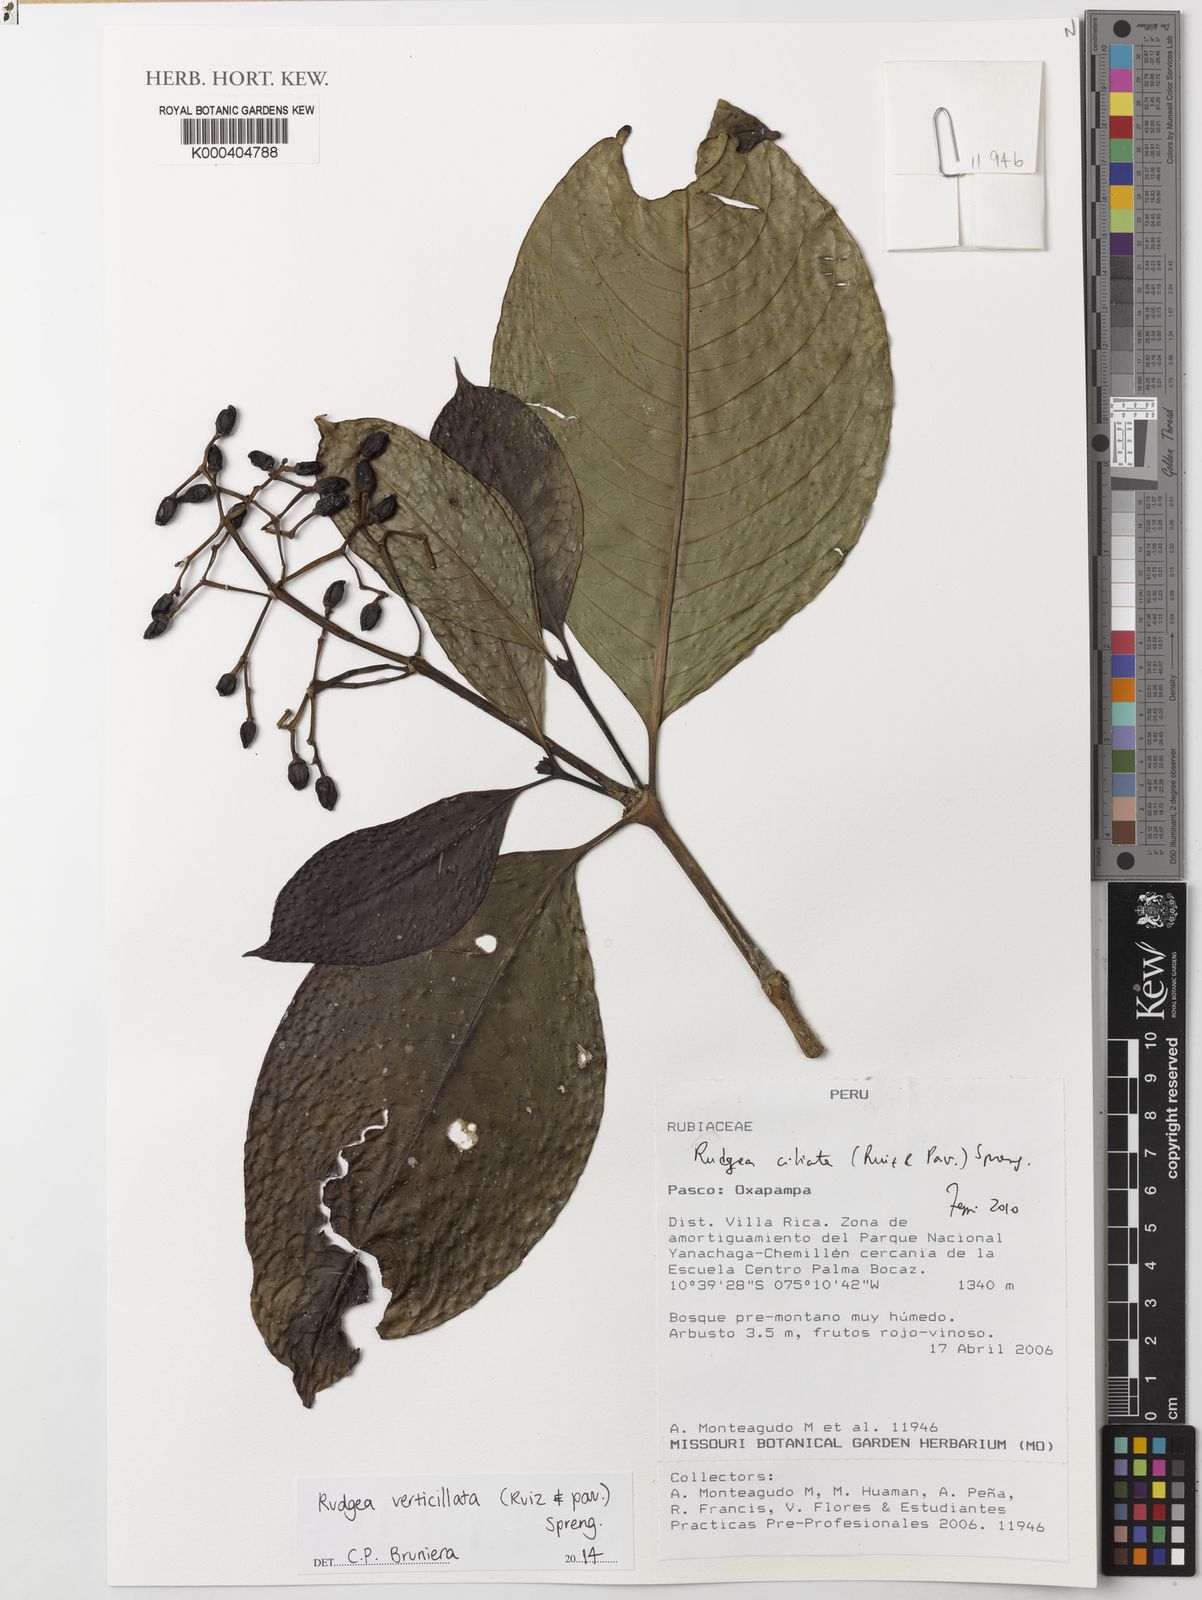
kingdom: Plantae
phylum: Tracheophyta
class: Magnoliopsida
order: Gentianales
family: Rubiaceae
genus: Rudgea
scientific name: Rudgea verticillata
